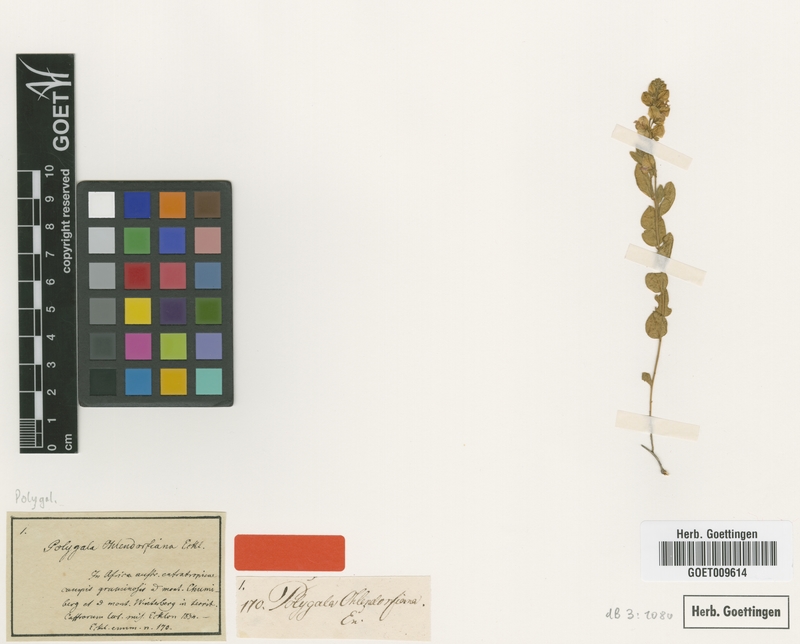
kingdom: Plantae
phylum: Tracheophyta
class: Magnoliopsida
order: Fabales
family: Polygalaceae
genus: Polygala
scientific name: Polygala ohlendorfiana
